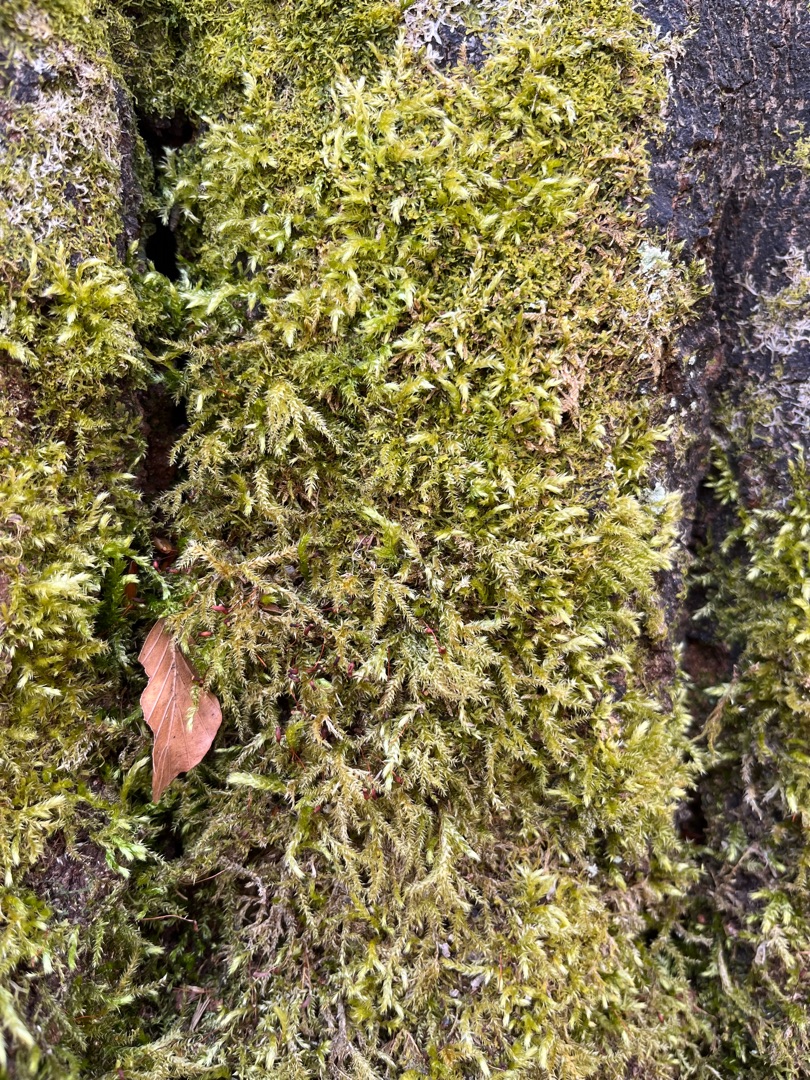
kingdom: Plantae
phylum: Bryophyta
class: Bryopsida
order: Hypnales
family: Brachytheciaceae
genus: Brachythecium
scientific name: Brachythecium rutabulum
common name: Almindelig kortkapsel
